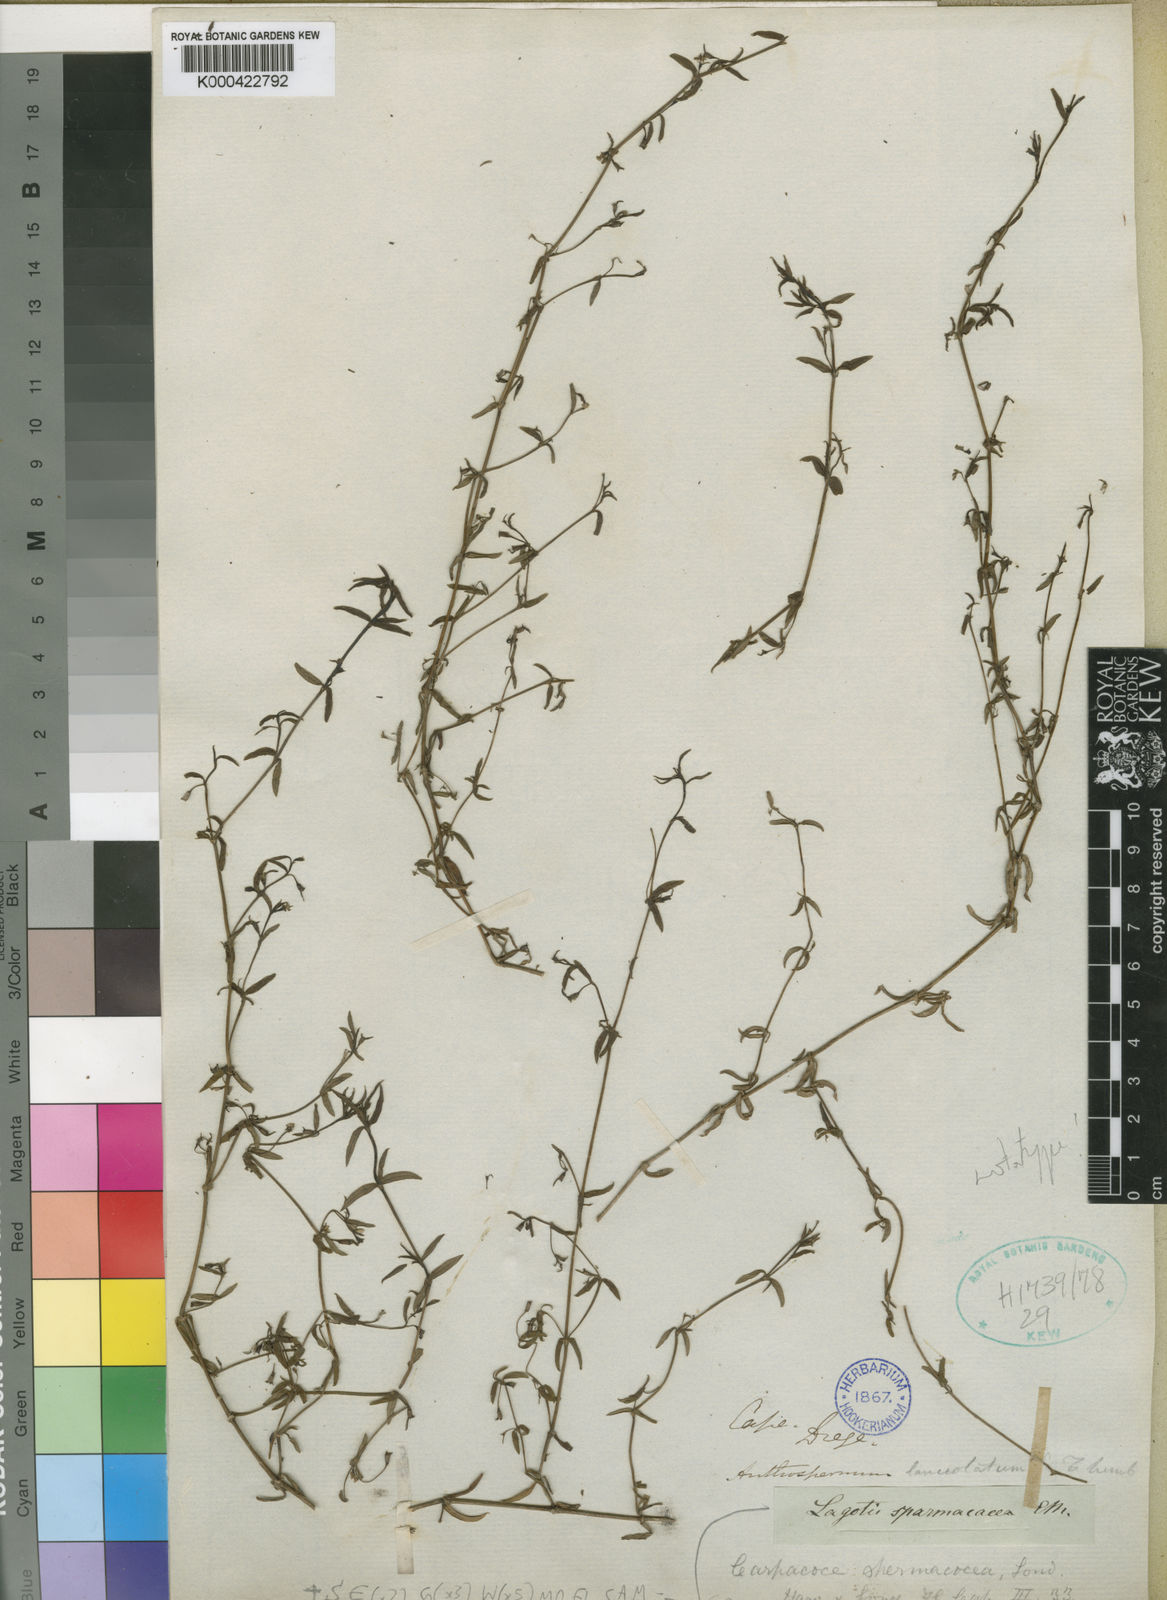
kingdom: Plantae
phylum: Tracheophyta
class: Magnoliopsida
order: Gentianales
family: Rubiaceae
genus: Carpacoce
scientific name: Carpacoce spermacocea
